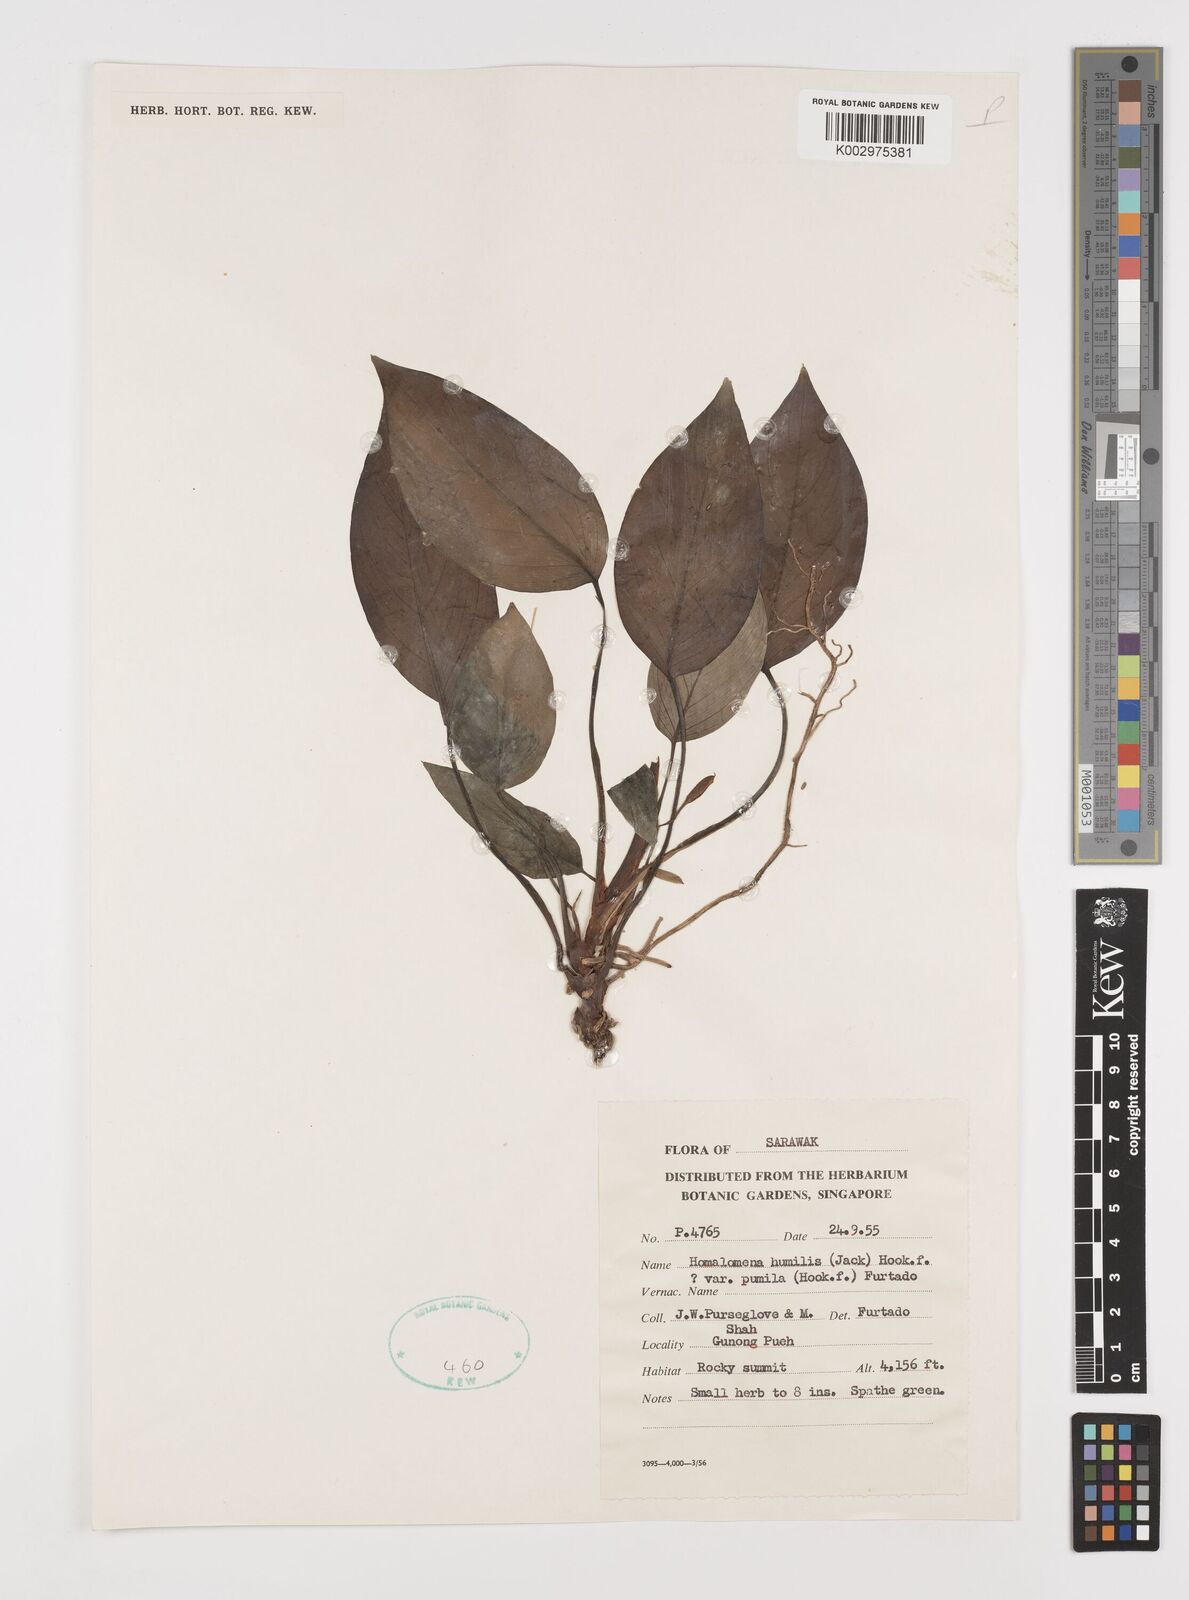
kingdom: Plantae
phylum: Tracheophyta
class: Liliopsida
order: Alismatales
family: Araceae
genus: Homalomena
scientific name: Homalomena humilis
